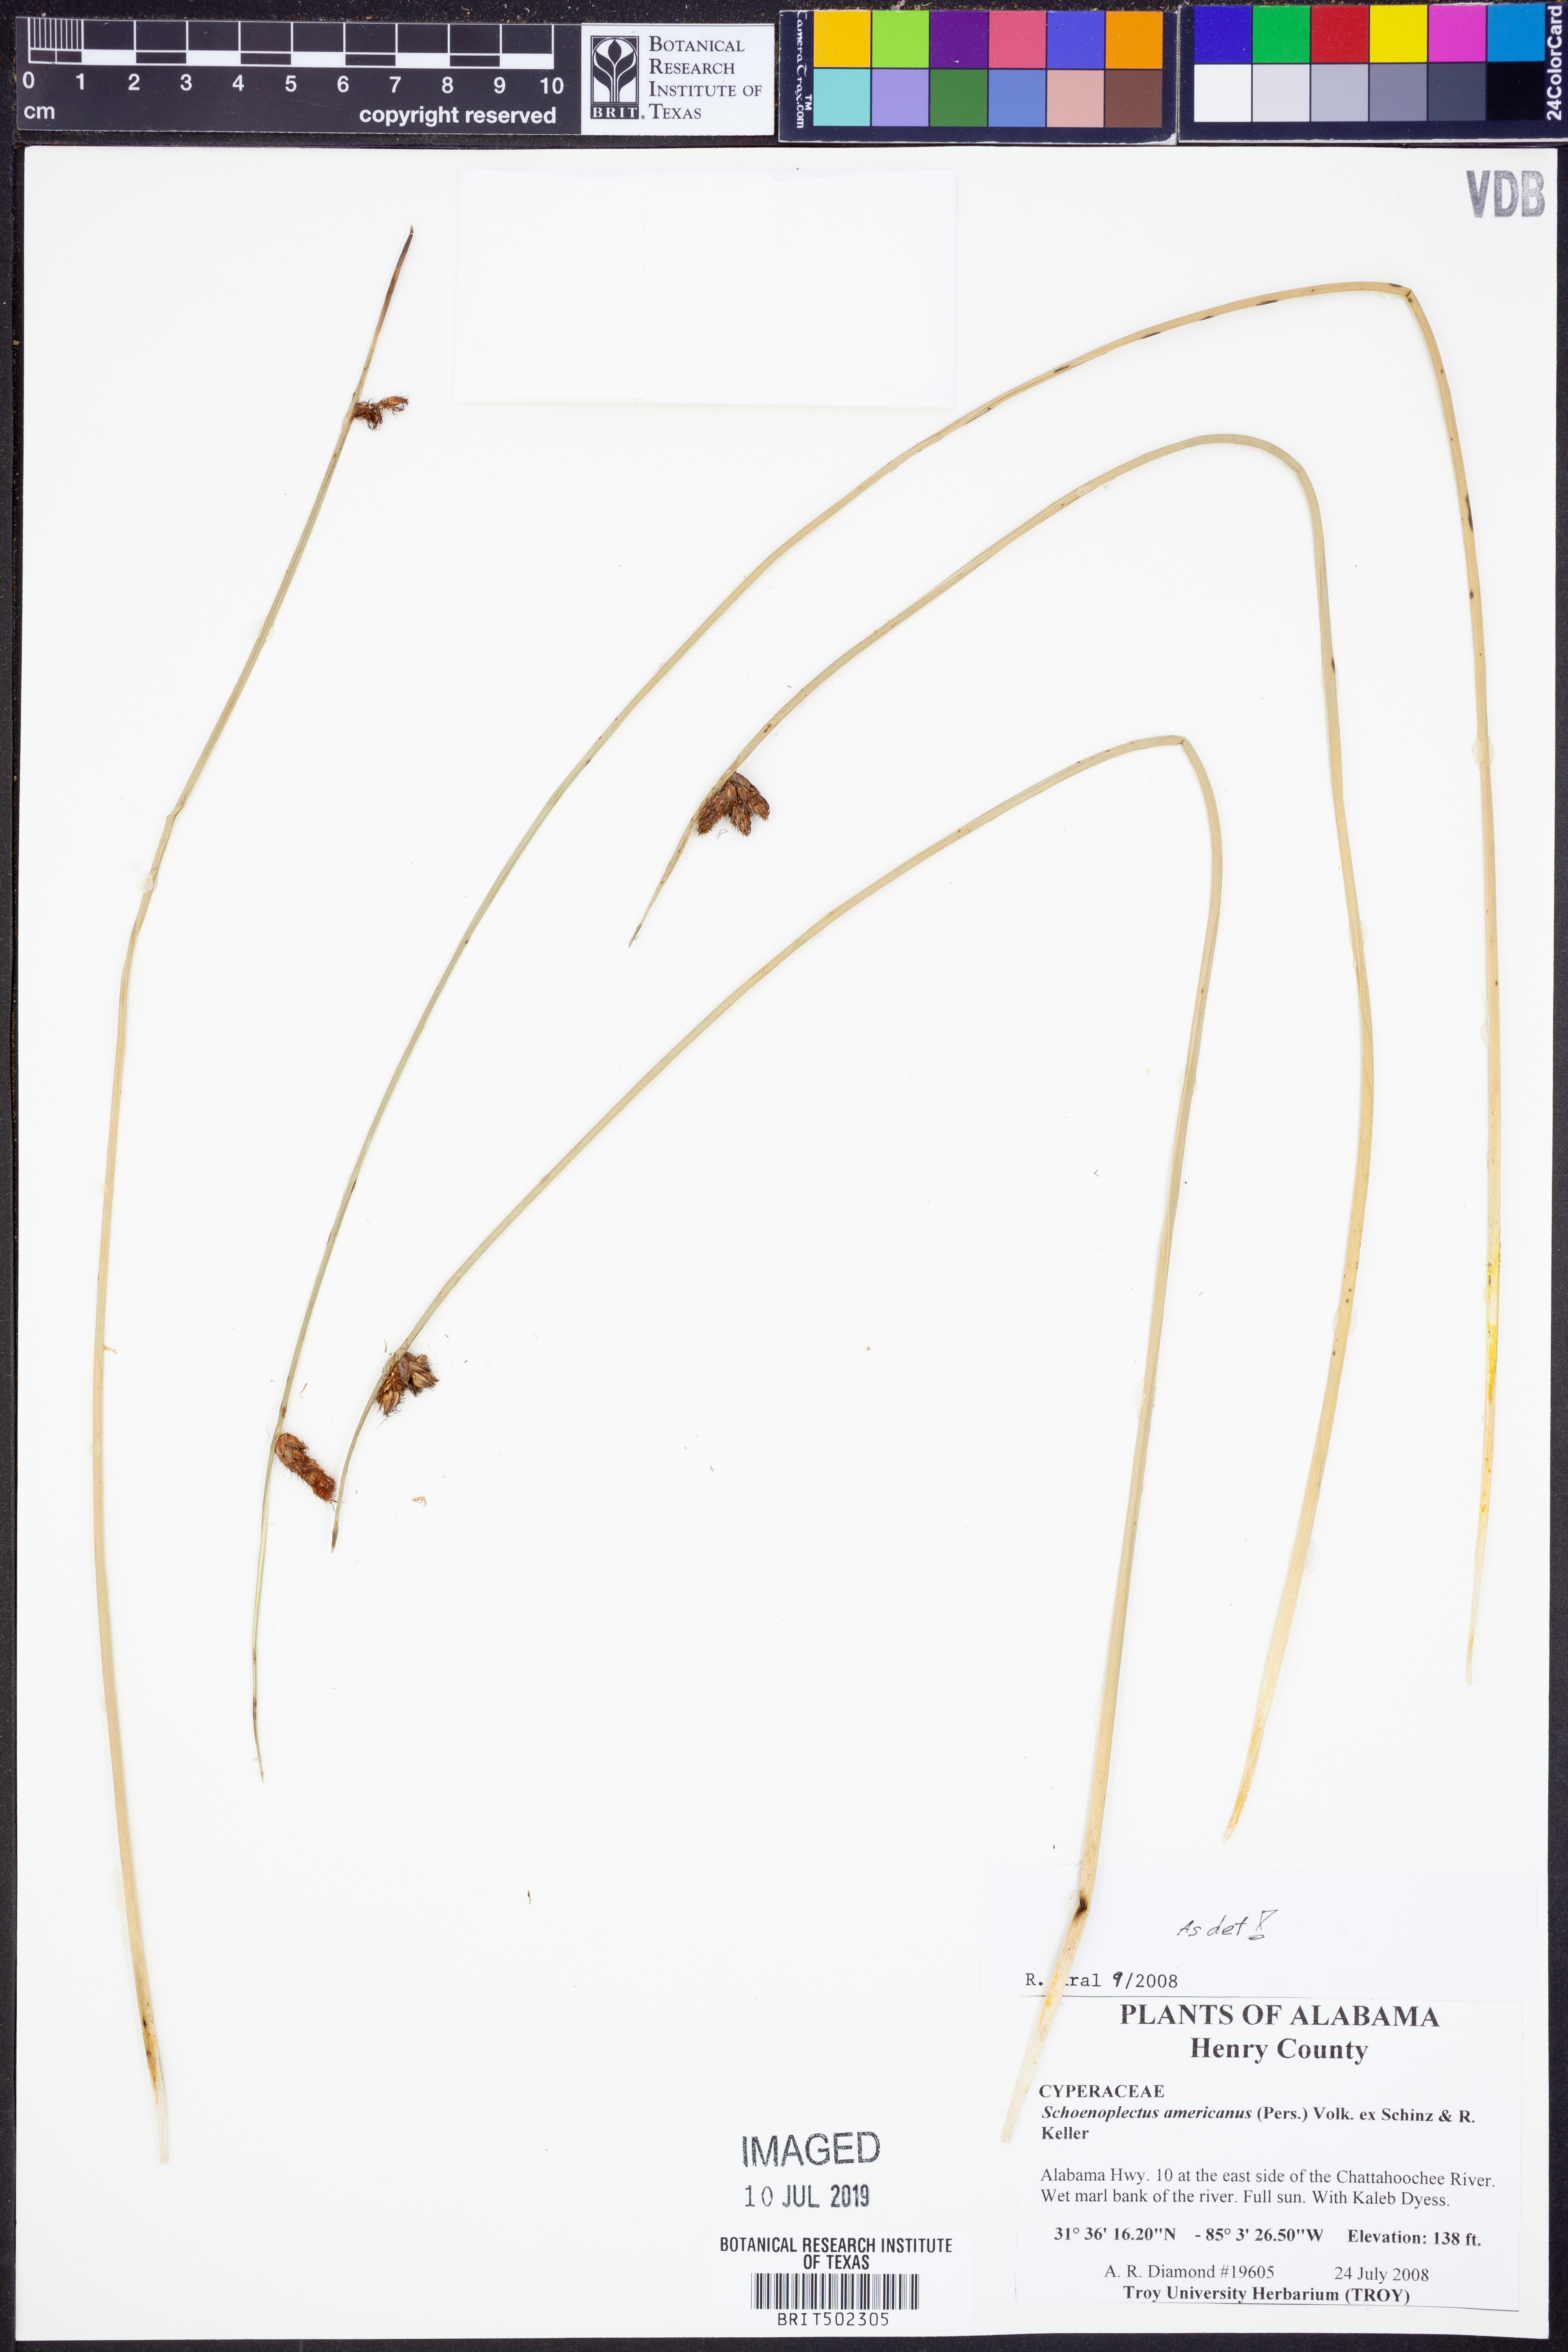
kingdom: Plantae
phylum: Tracheophyta
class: Liliopsida
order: Poales
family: Cyperaceae
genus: Schoenoplectus
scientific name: Schoenoplectus americanus
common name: American three-square bulrush
